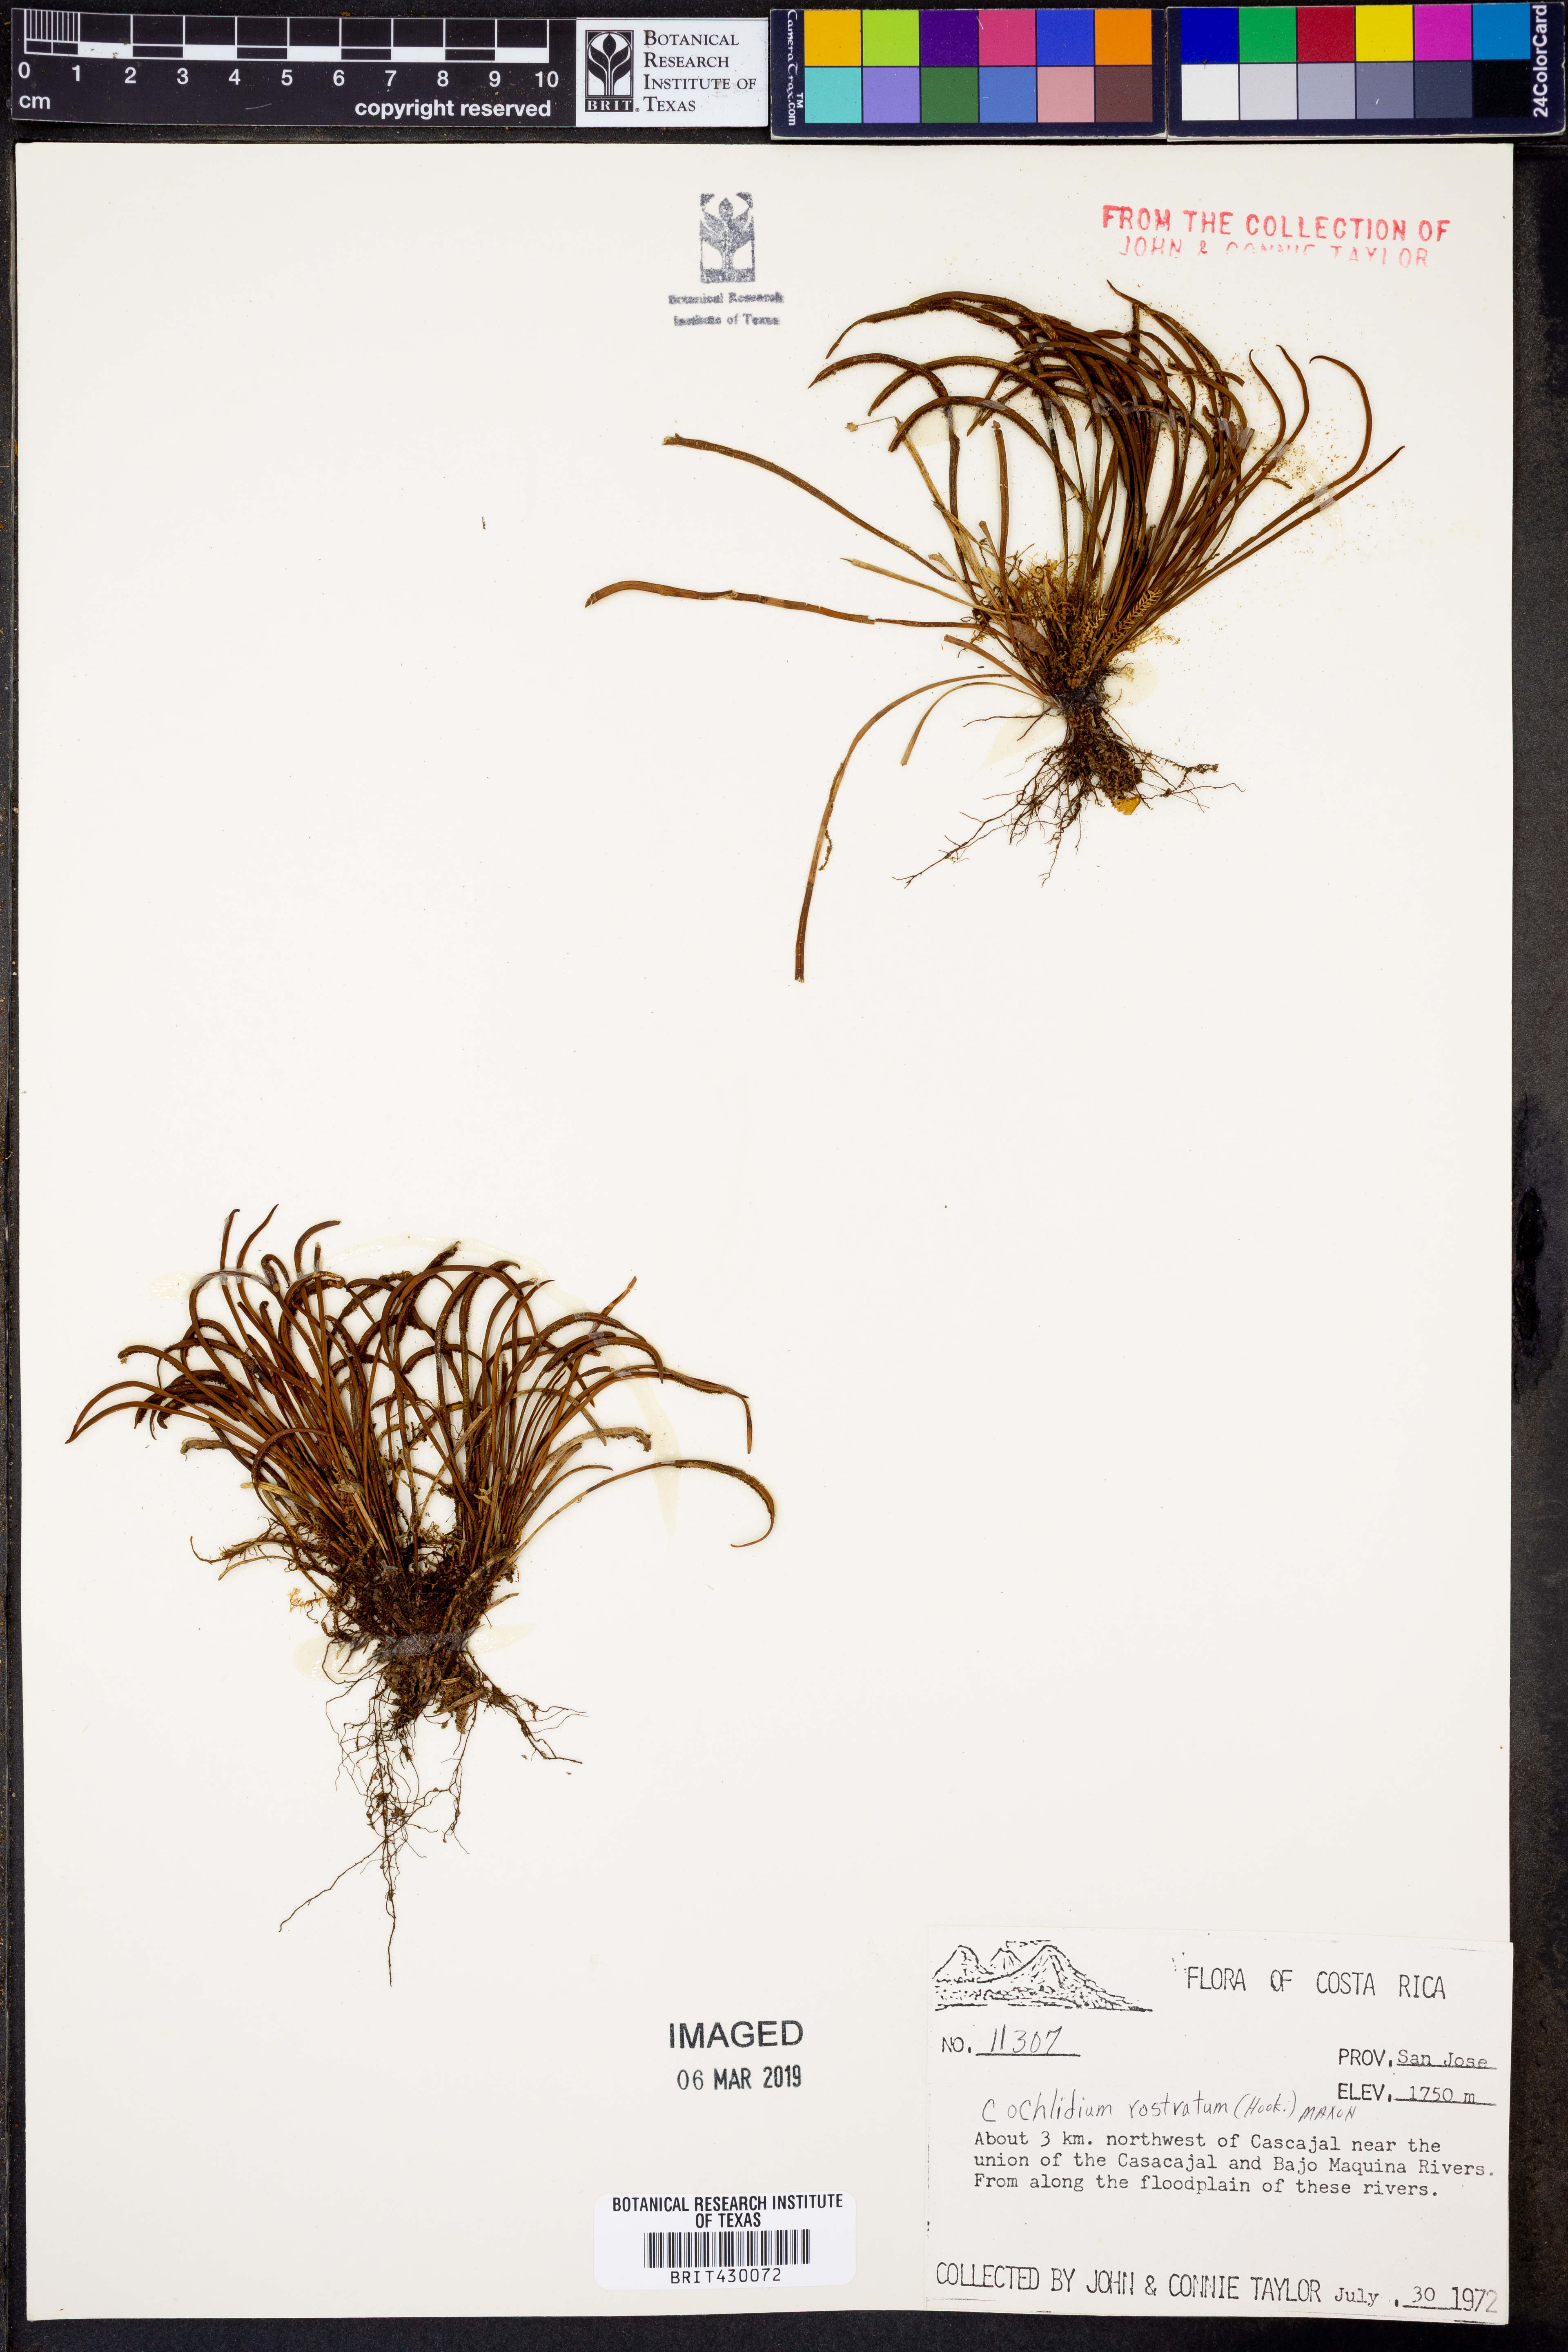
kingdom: Plantae
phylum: Tracheophyta
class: Polypodiopsida
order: Polypodiales
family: Polypodiaceae
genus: Cochlidium
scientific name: Cochlidium rostratum
